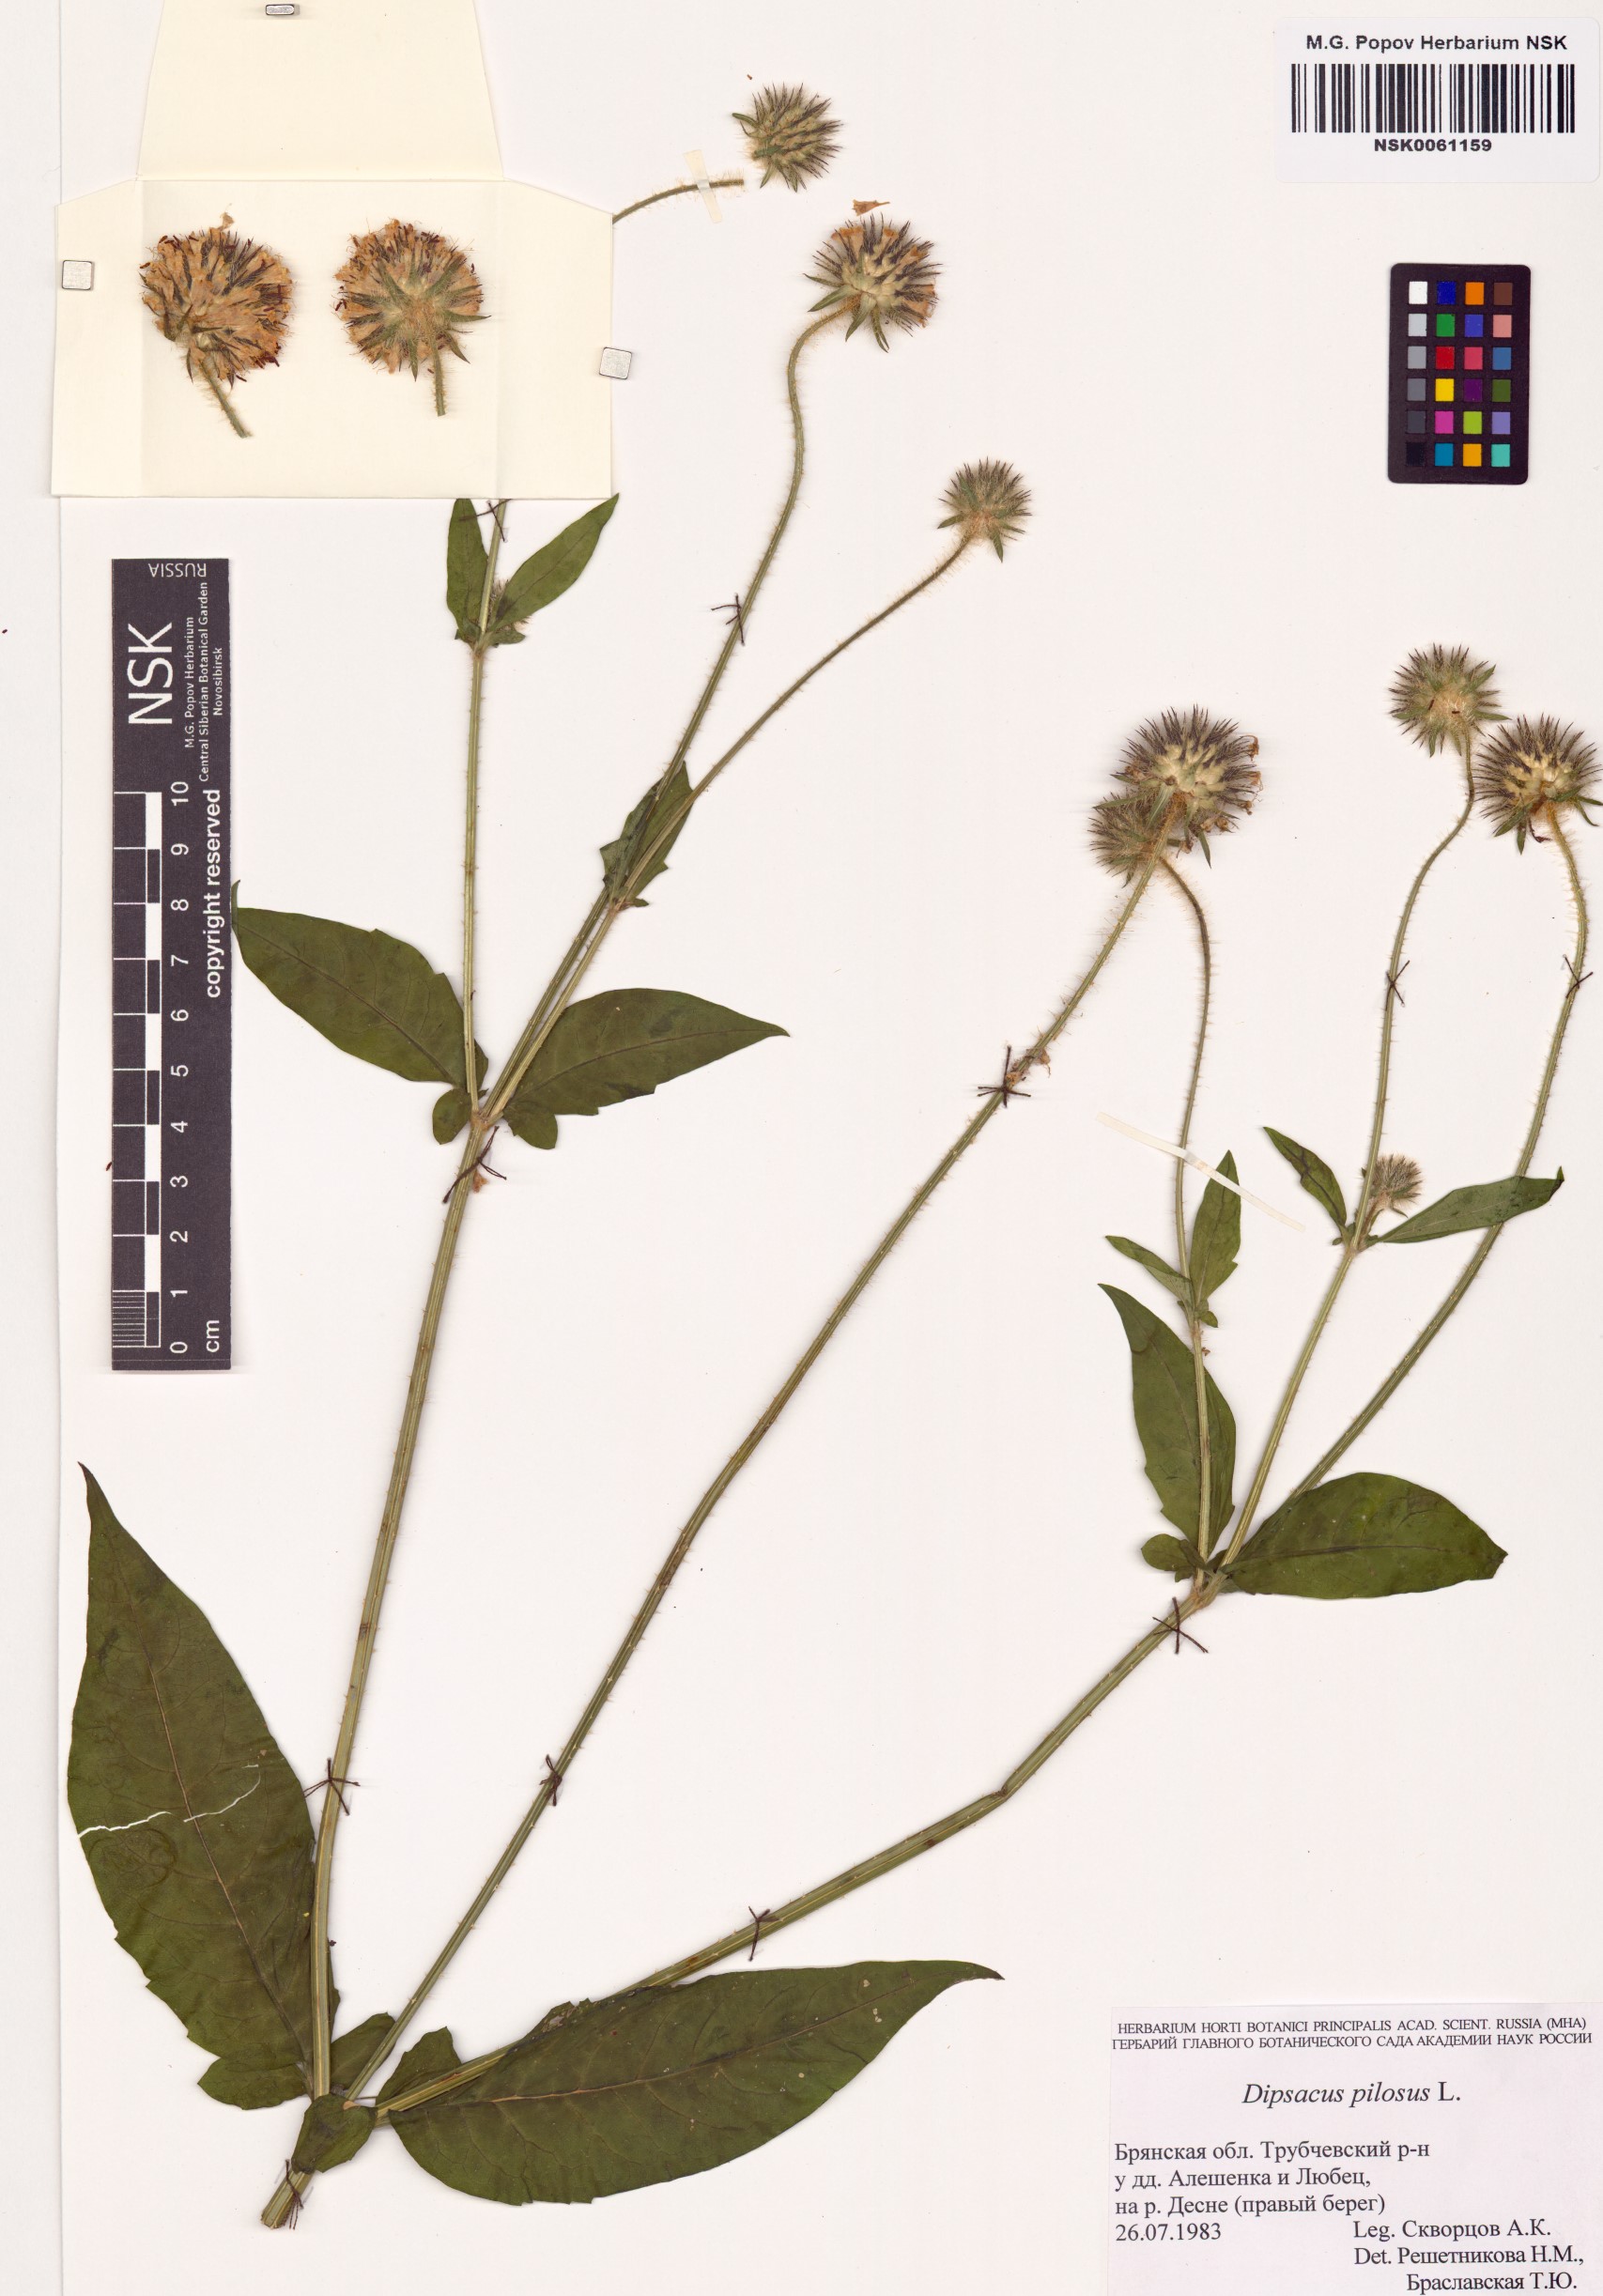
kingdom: Plantae
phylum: Tracheophyta
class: Magnoliopsida
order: Dipsacales
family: Caprifoliaceae
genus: Dipsacus
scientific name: Dipsacus pilosus
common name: Small teasel
